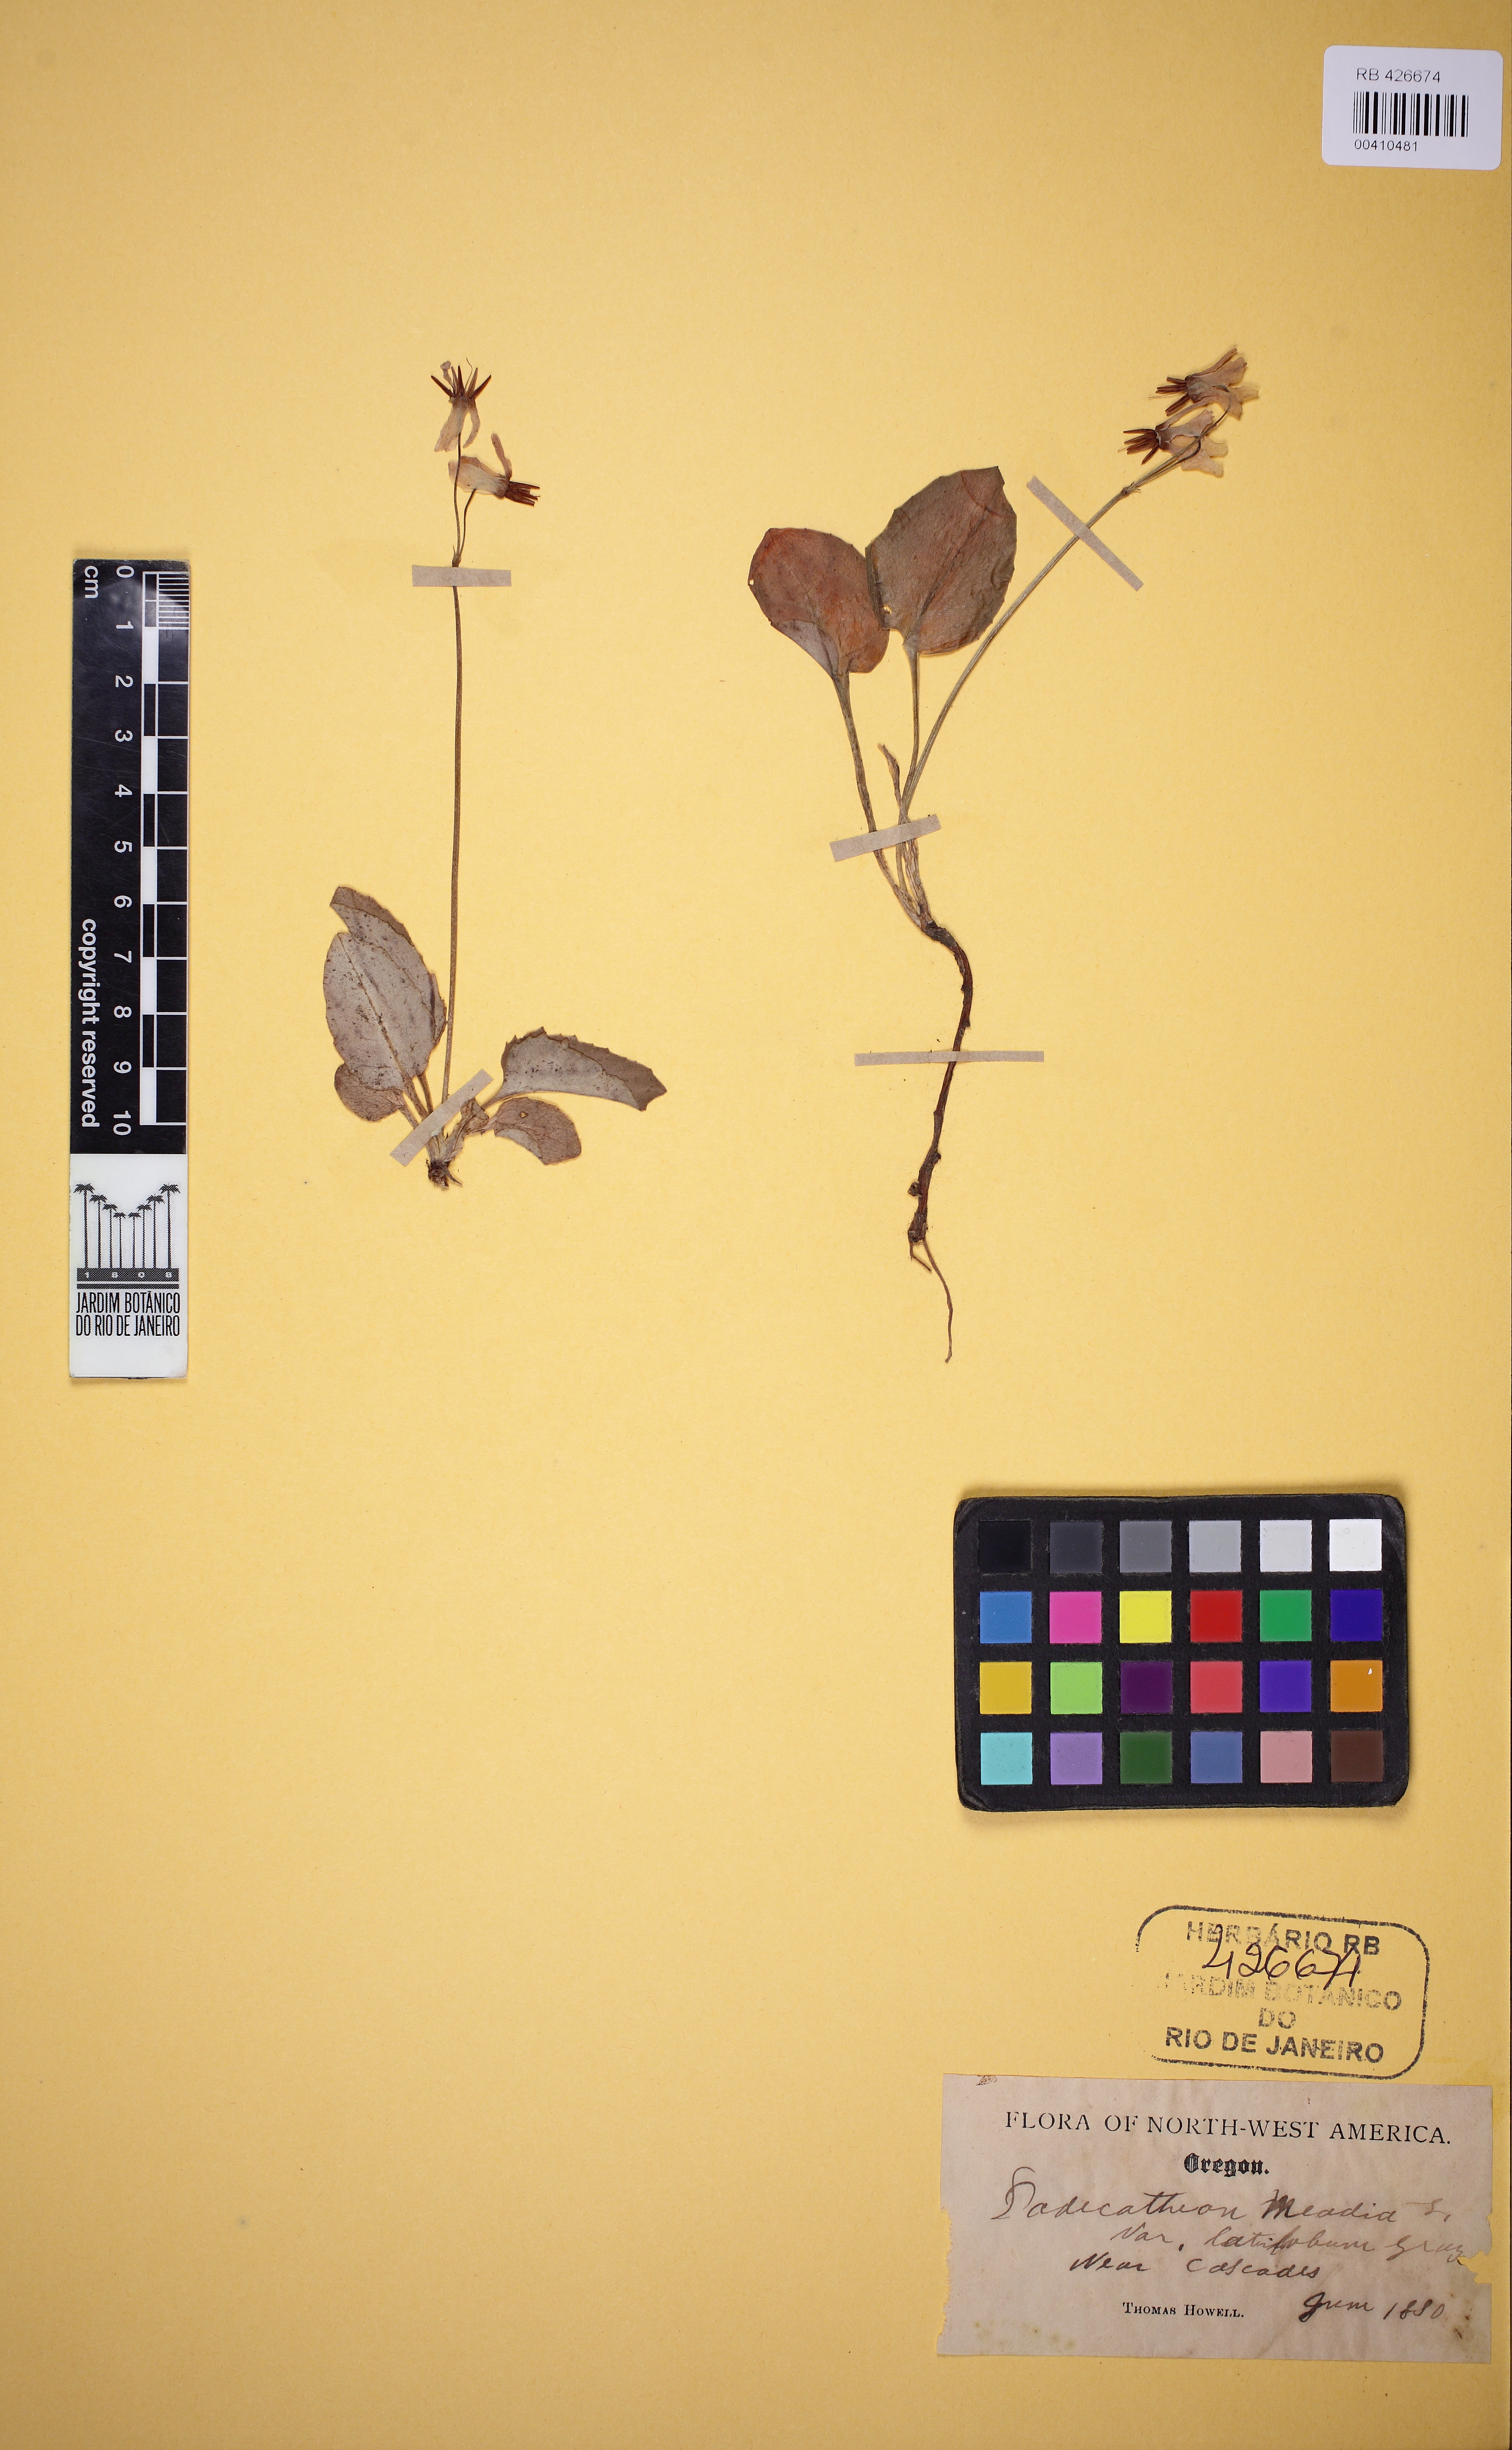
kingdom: Plantae
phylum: Tracheophyta
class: Magnoliopsida
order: Ericales
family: Primulaceae
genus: Dodecatheon
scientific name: Dodecatheon dentatum
